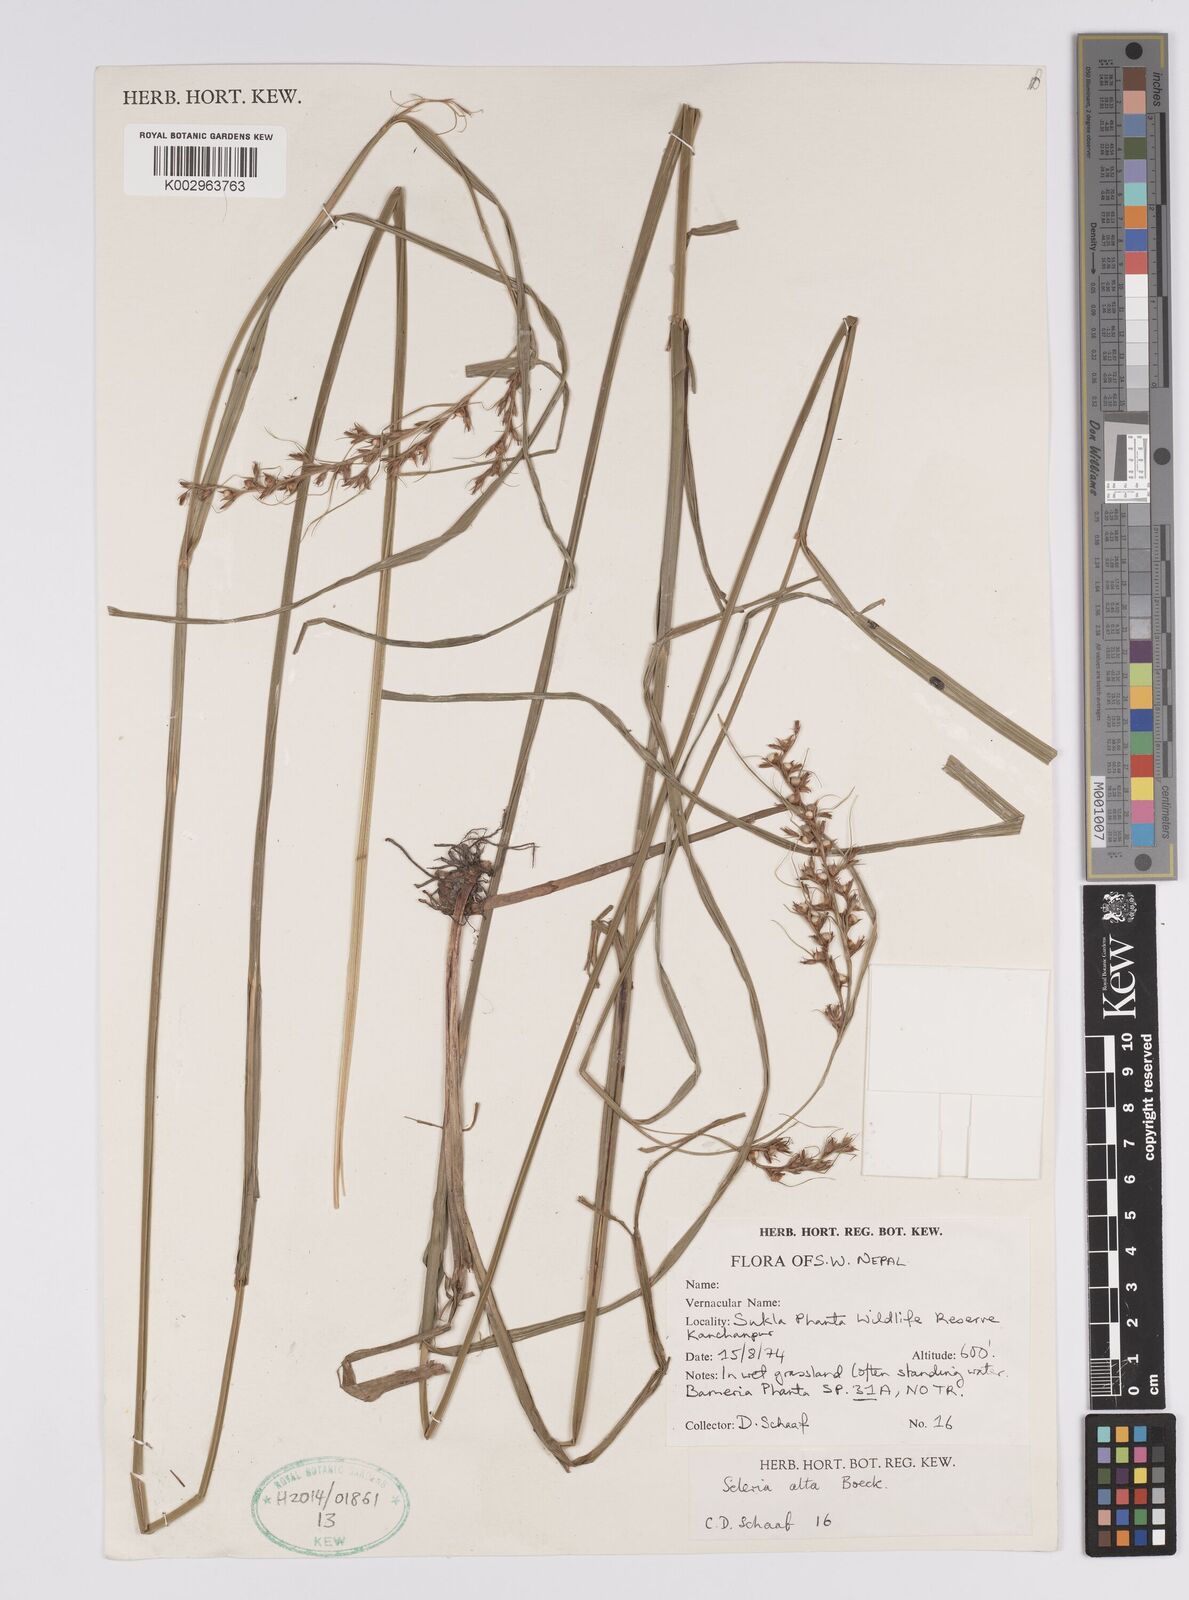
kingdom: Plantae
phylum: Tracheophyta
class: Liliopsida
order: Poales
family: Cyperaceae
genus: Scleria
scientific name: Scleria levis
